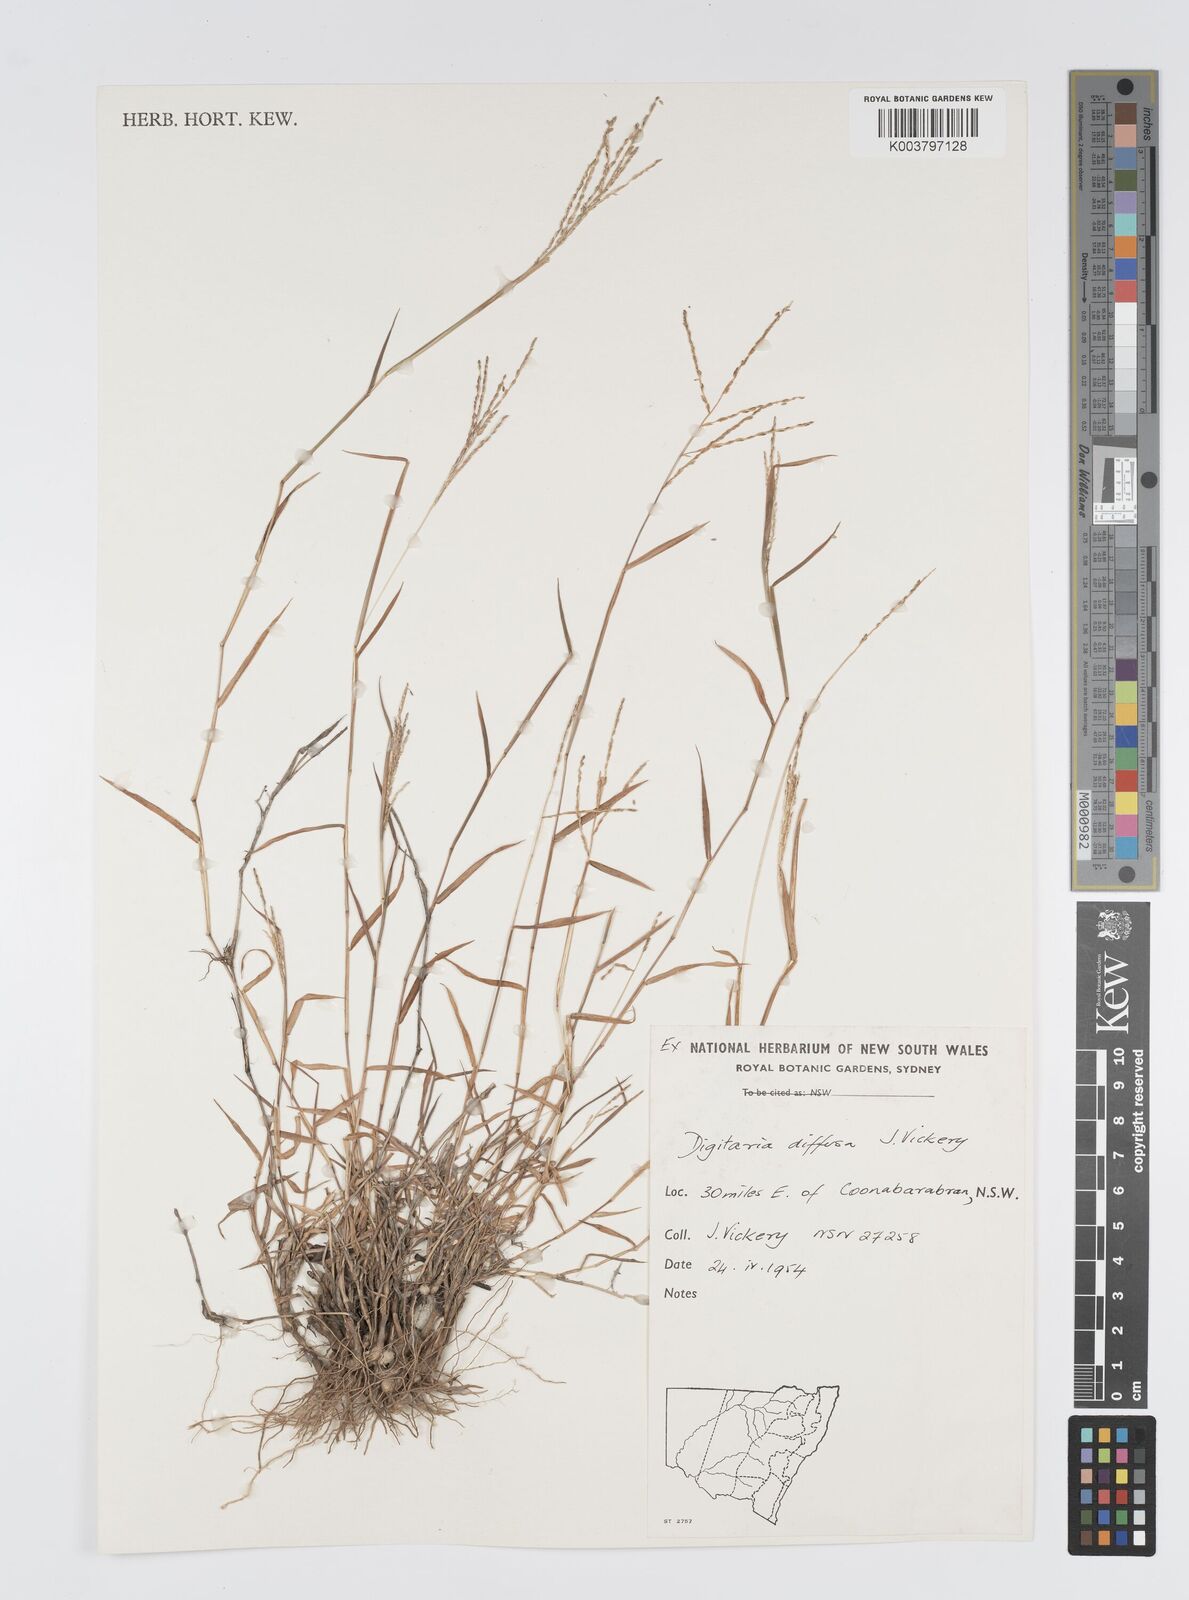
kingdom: Plantae
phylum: Tracheophyta
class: Liliopsida
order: Poales
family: Poaceae
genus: Digitaria
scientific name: Digitaria diffusa
